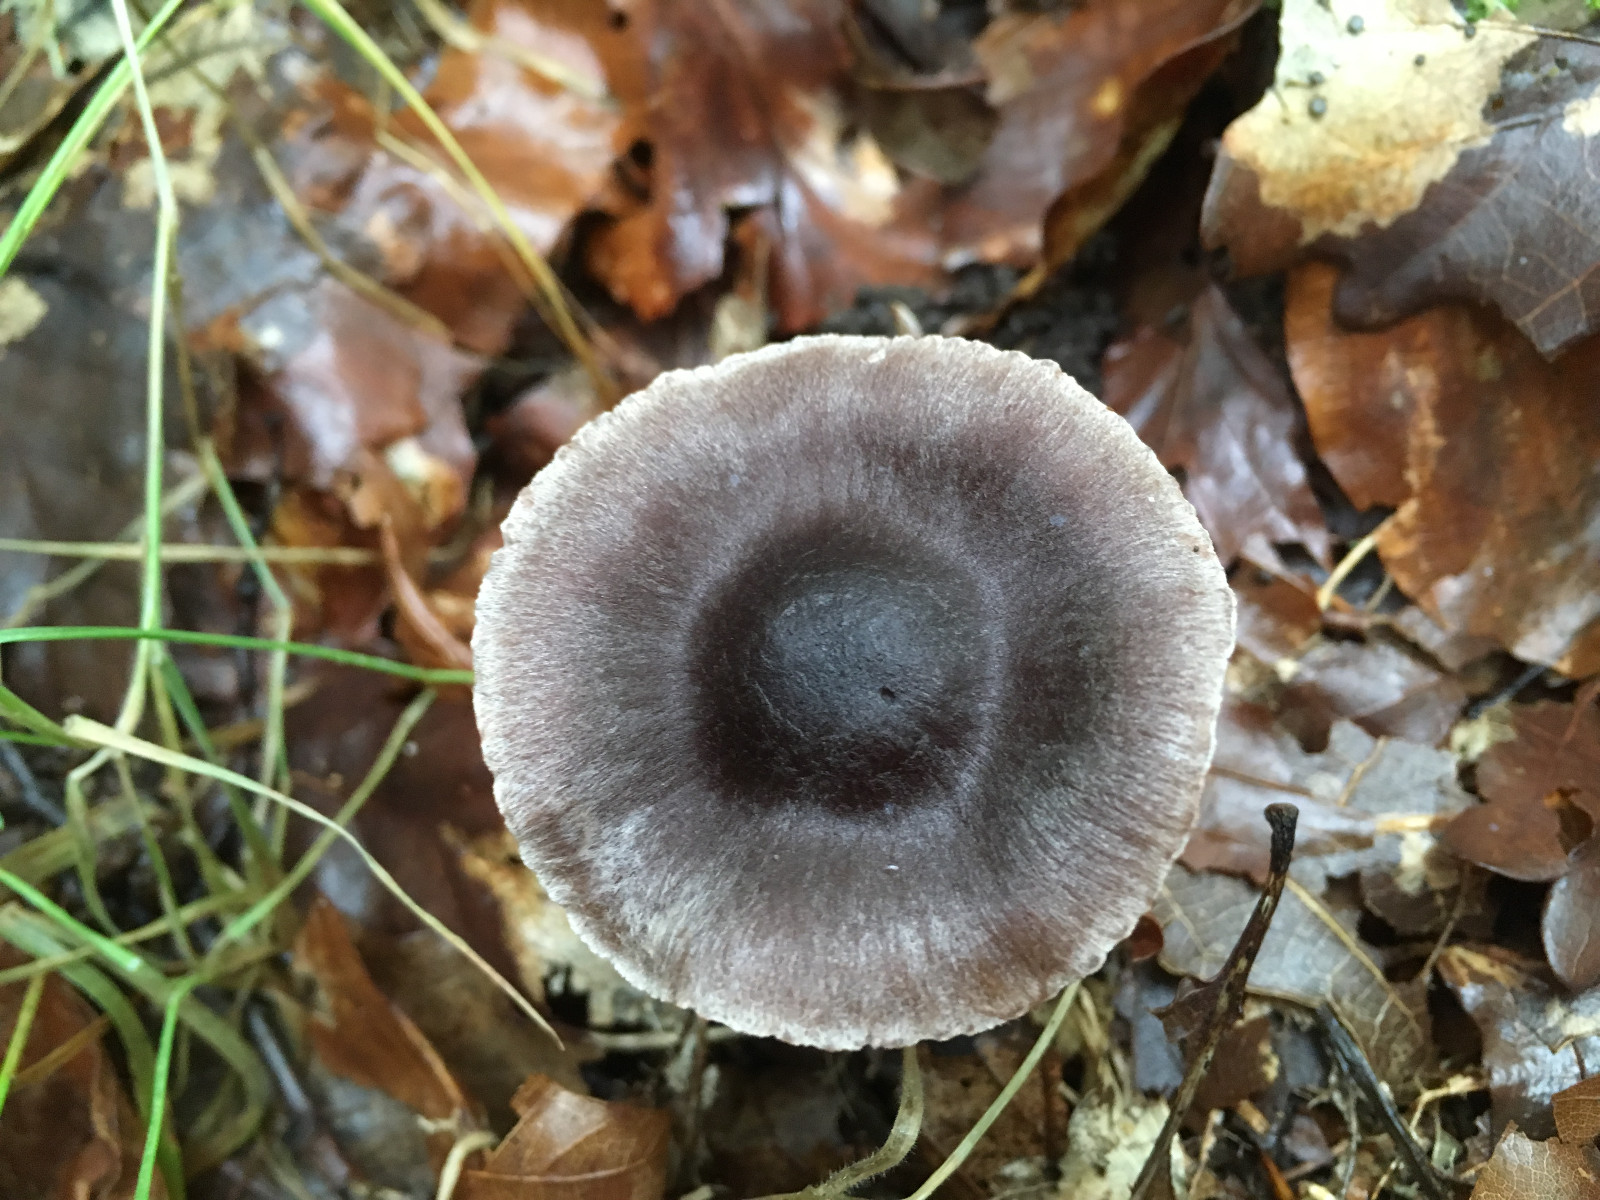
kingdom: Fungi
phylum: Basidiomycota
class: Agaricomycetes
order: Agaricales
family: Cortinariaceae
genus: Cortinarius
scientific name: Cortinarius
